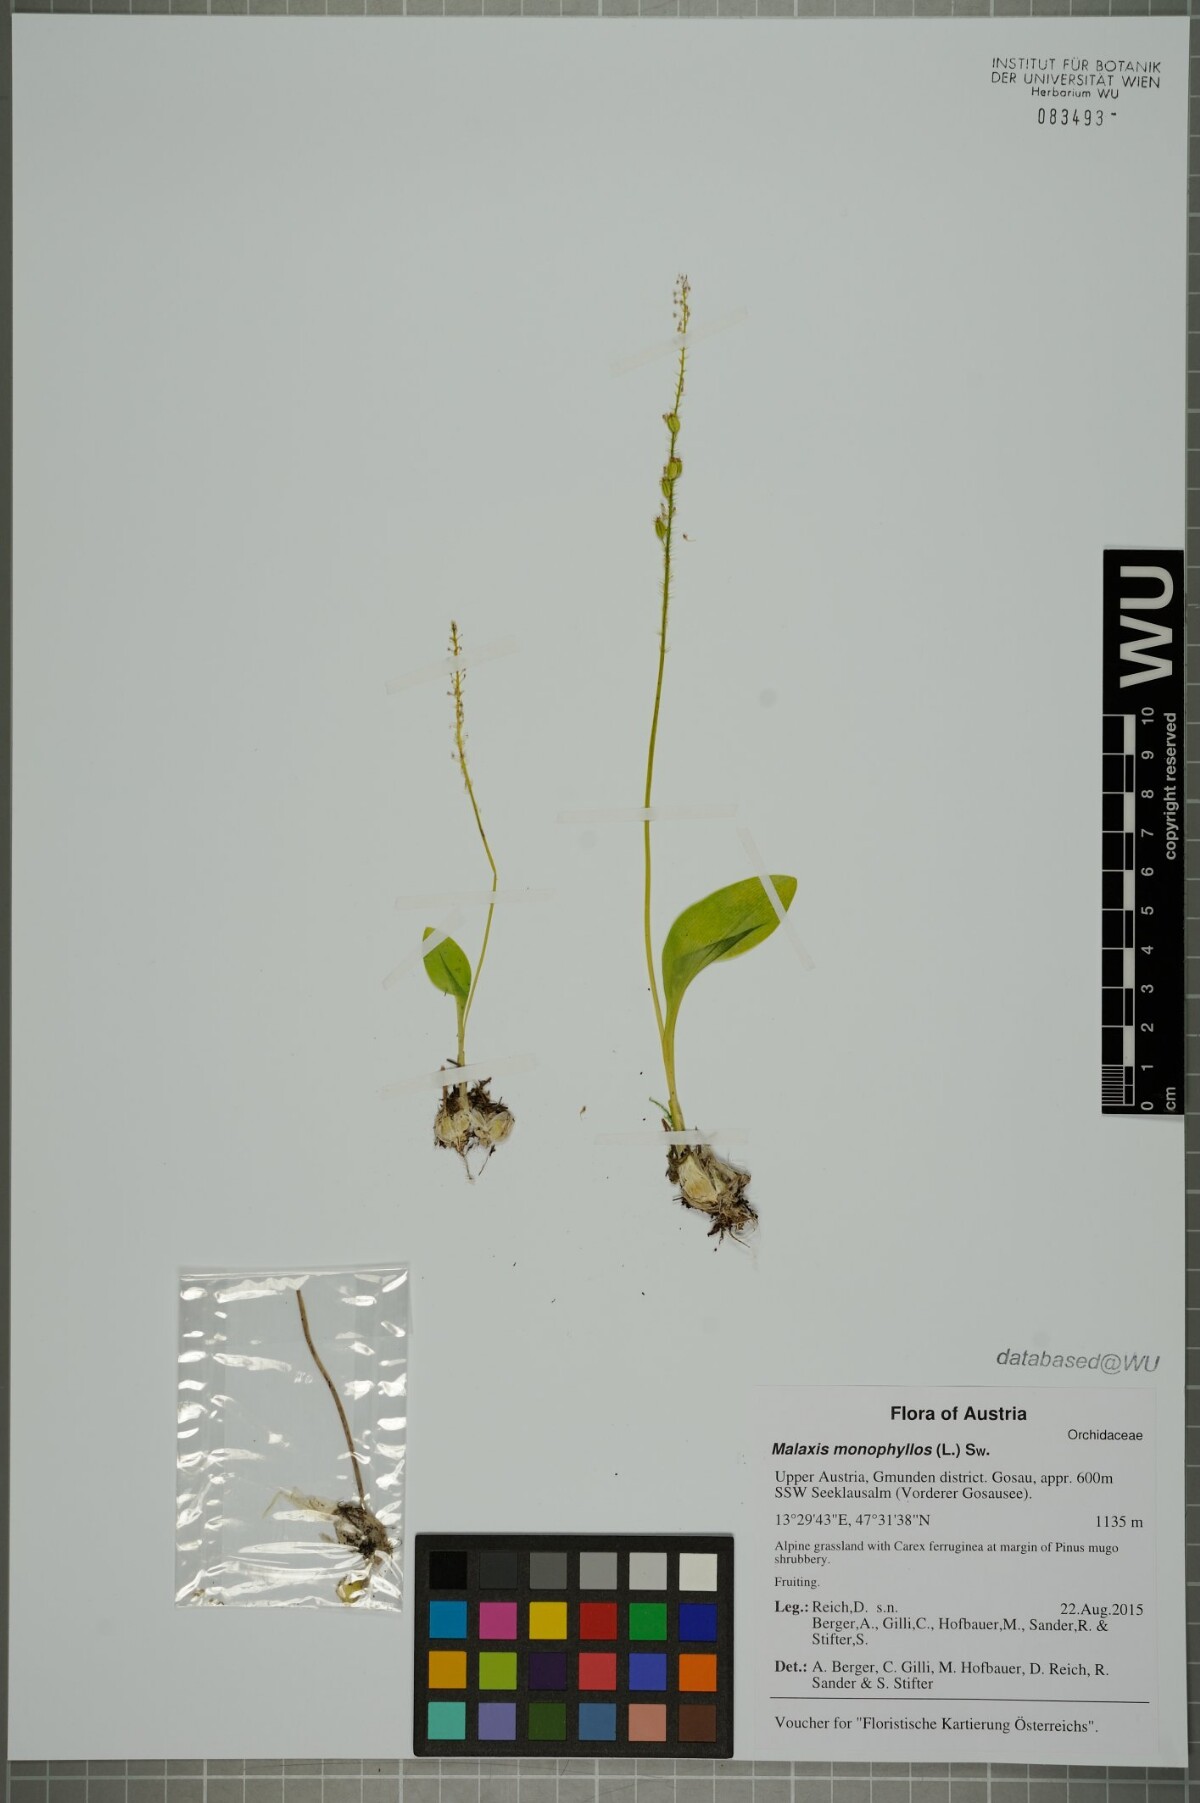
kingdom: Plantae
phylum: Tracheophyta
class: Liliopsida
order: Asparagales
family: Orchidaceae
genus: Malaxis
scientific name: Malaxis monophyllos
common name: White adder's-mouth
